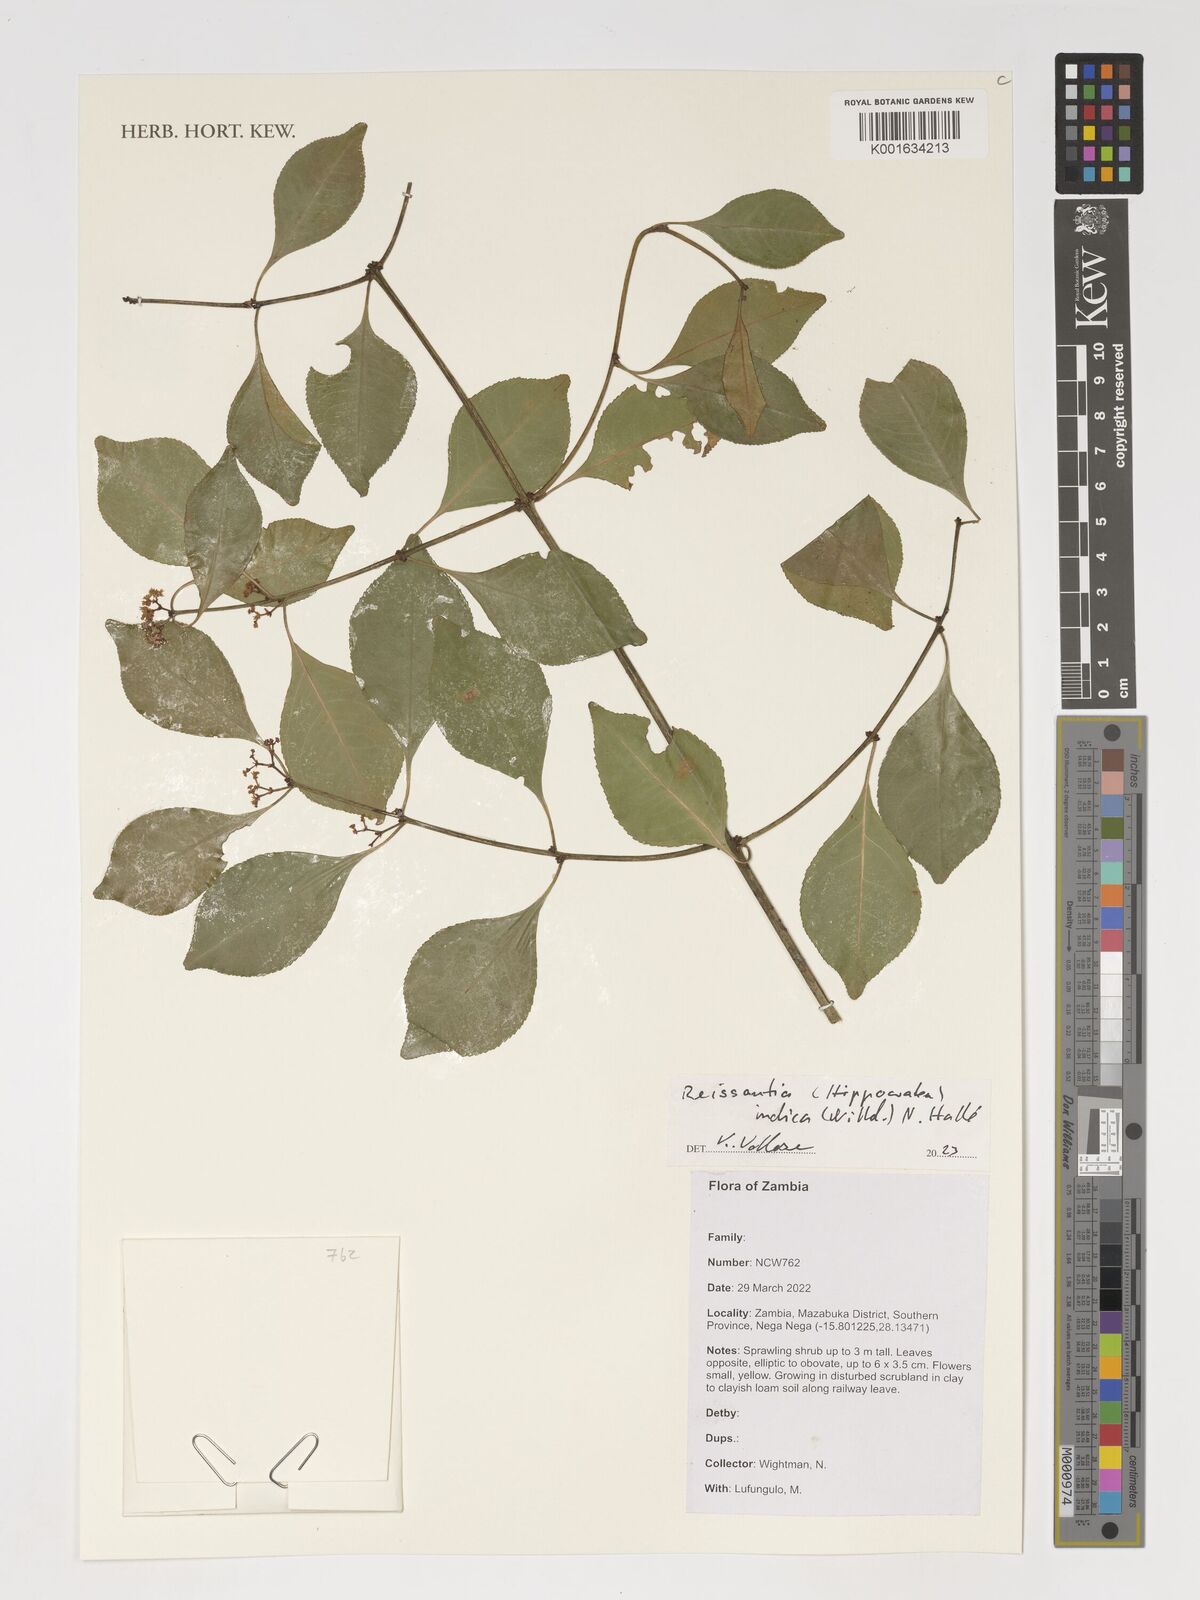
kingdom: Plantae
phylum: Tracheophyta
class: Magnoliopsida
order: Celastrales
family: Celastraceae
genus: Reissantia
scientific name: Reissantia indica
